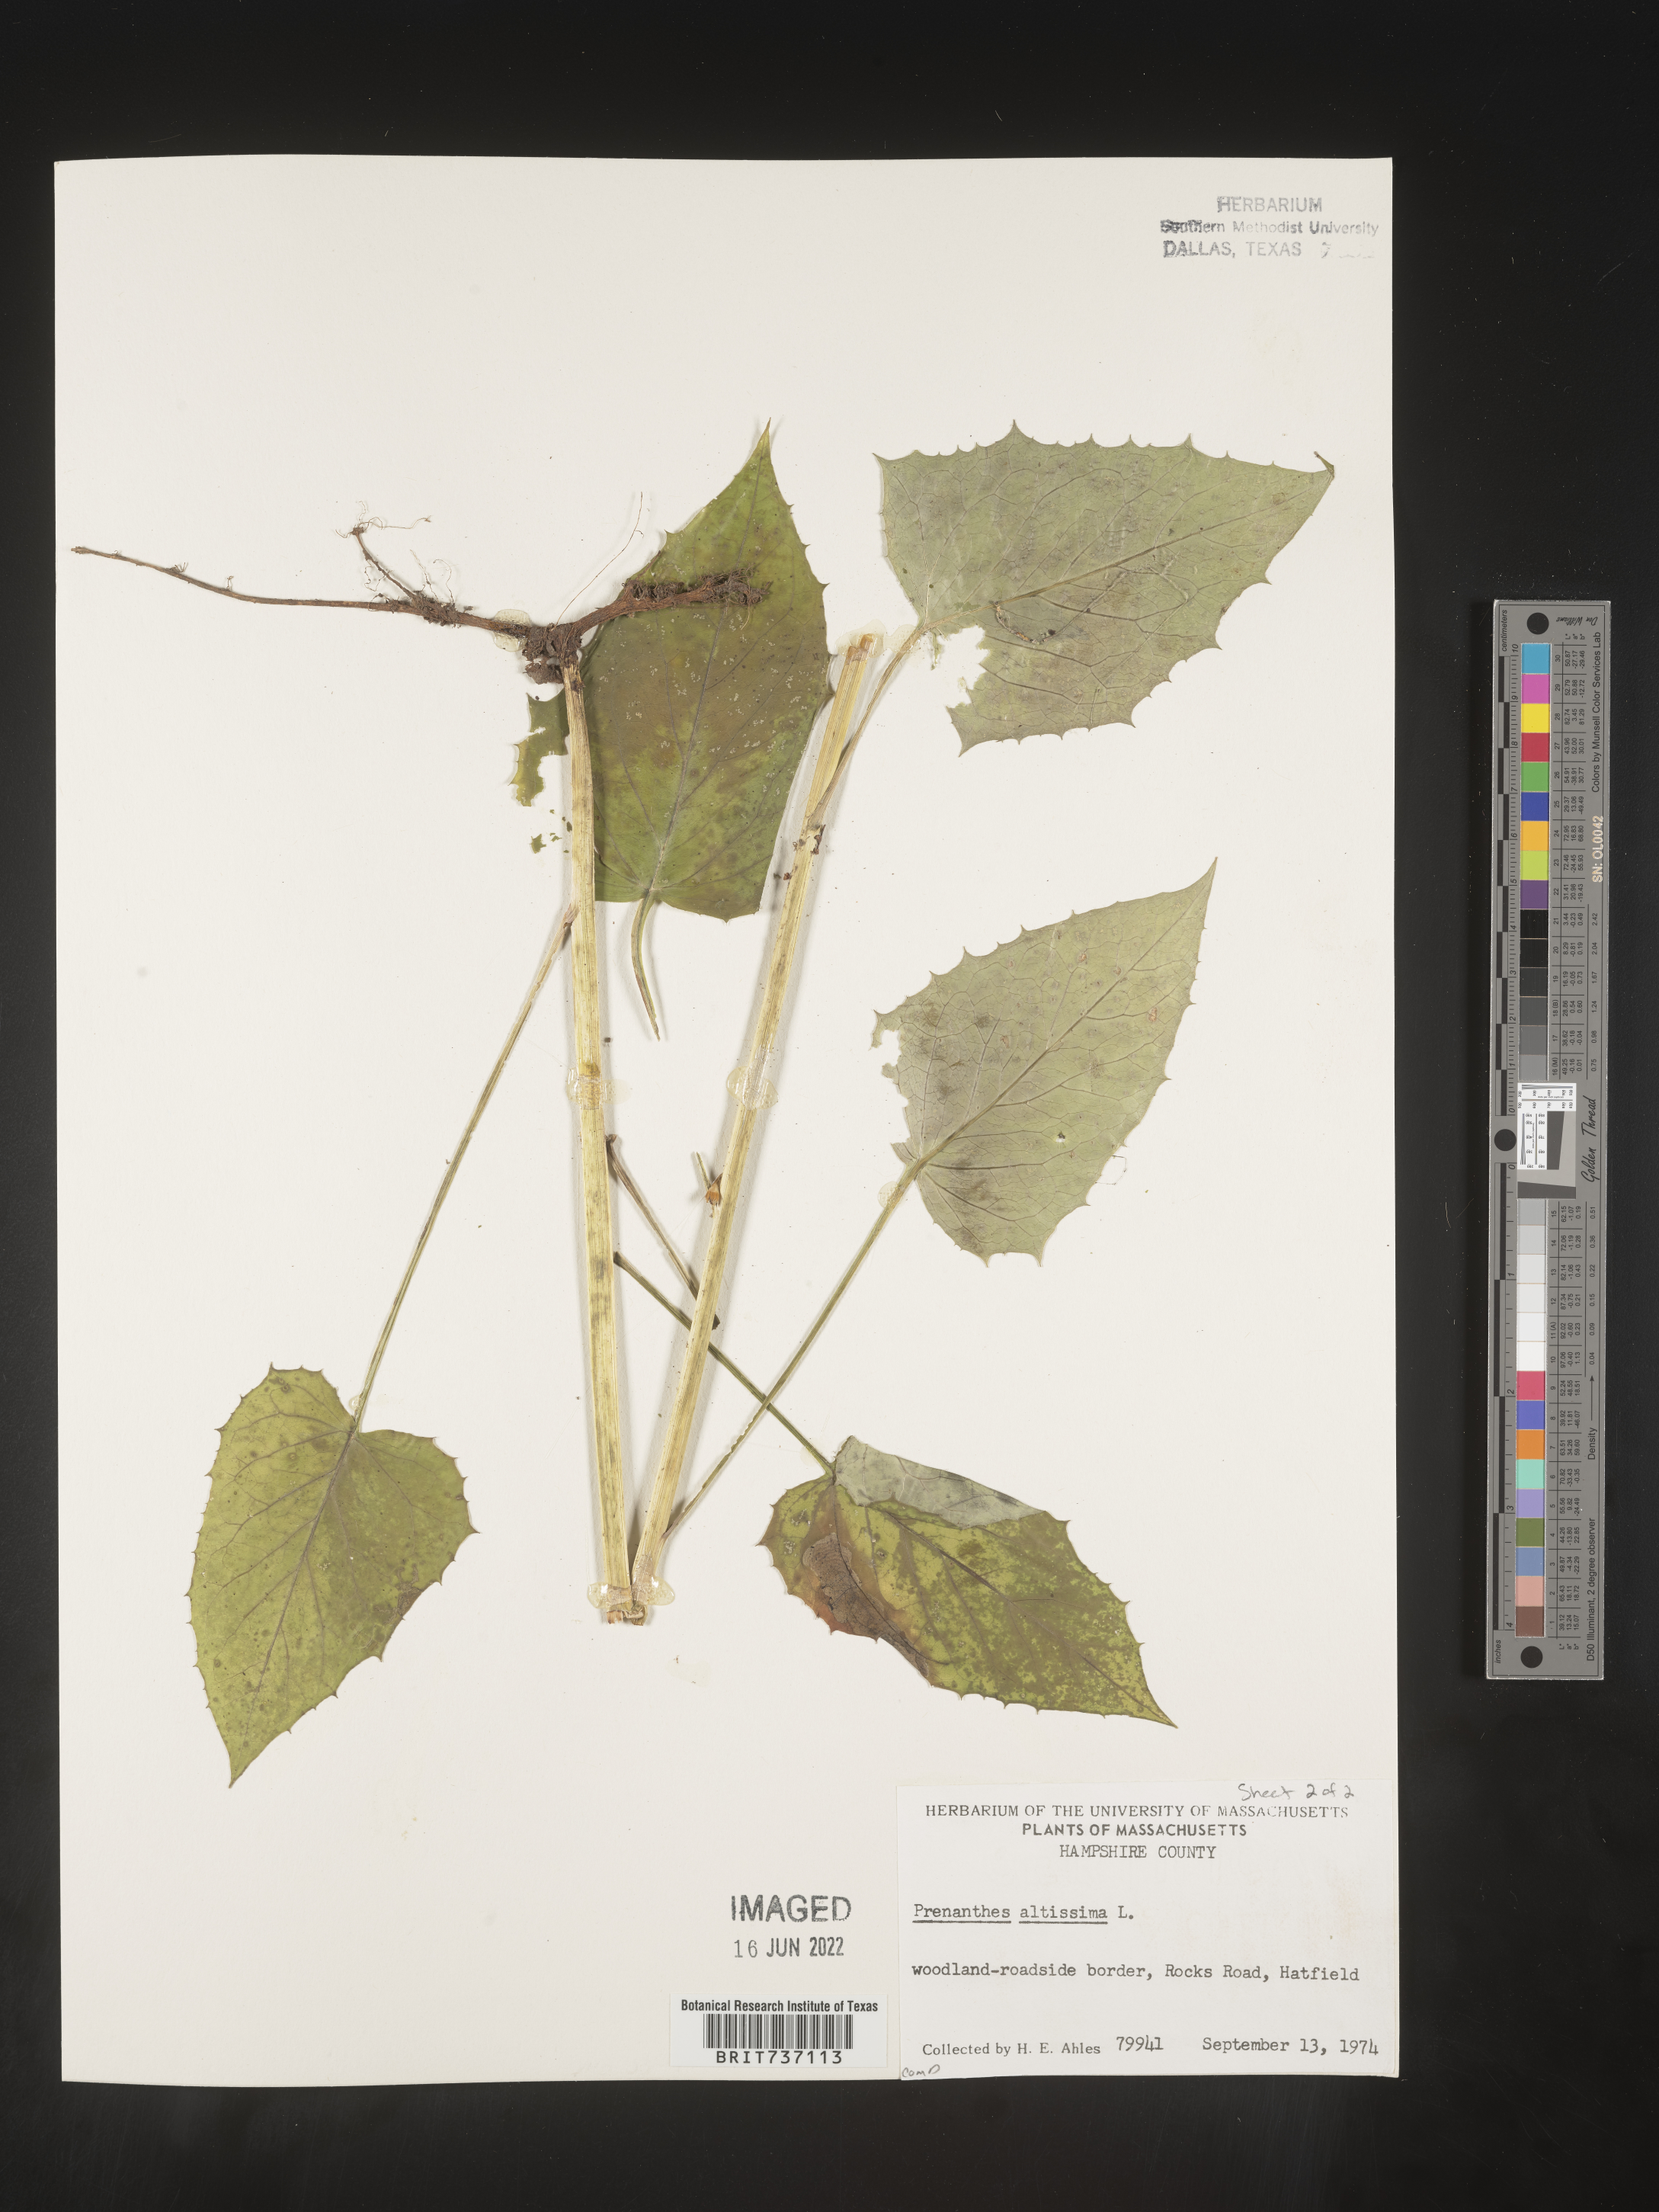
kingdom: Plantae
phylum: Tracheophyta
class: Magnoliopsida
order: Asterales
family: Asteraceae
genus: Lactuca
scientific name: Lactuca quercina
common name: Wild lettuce
